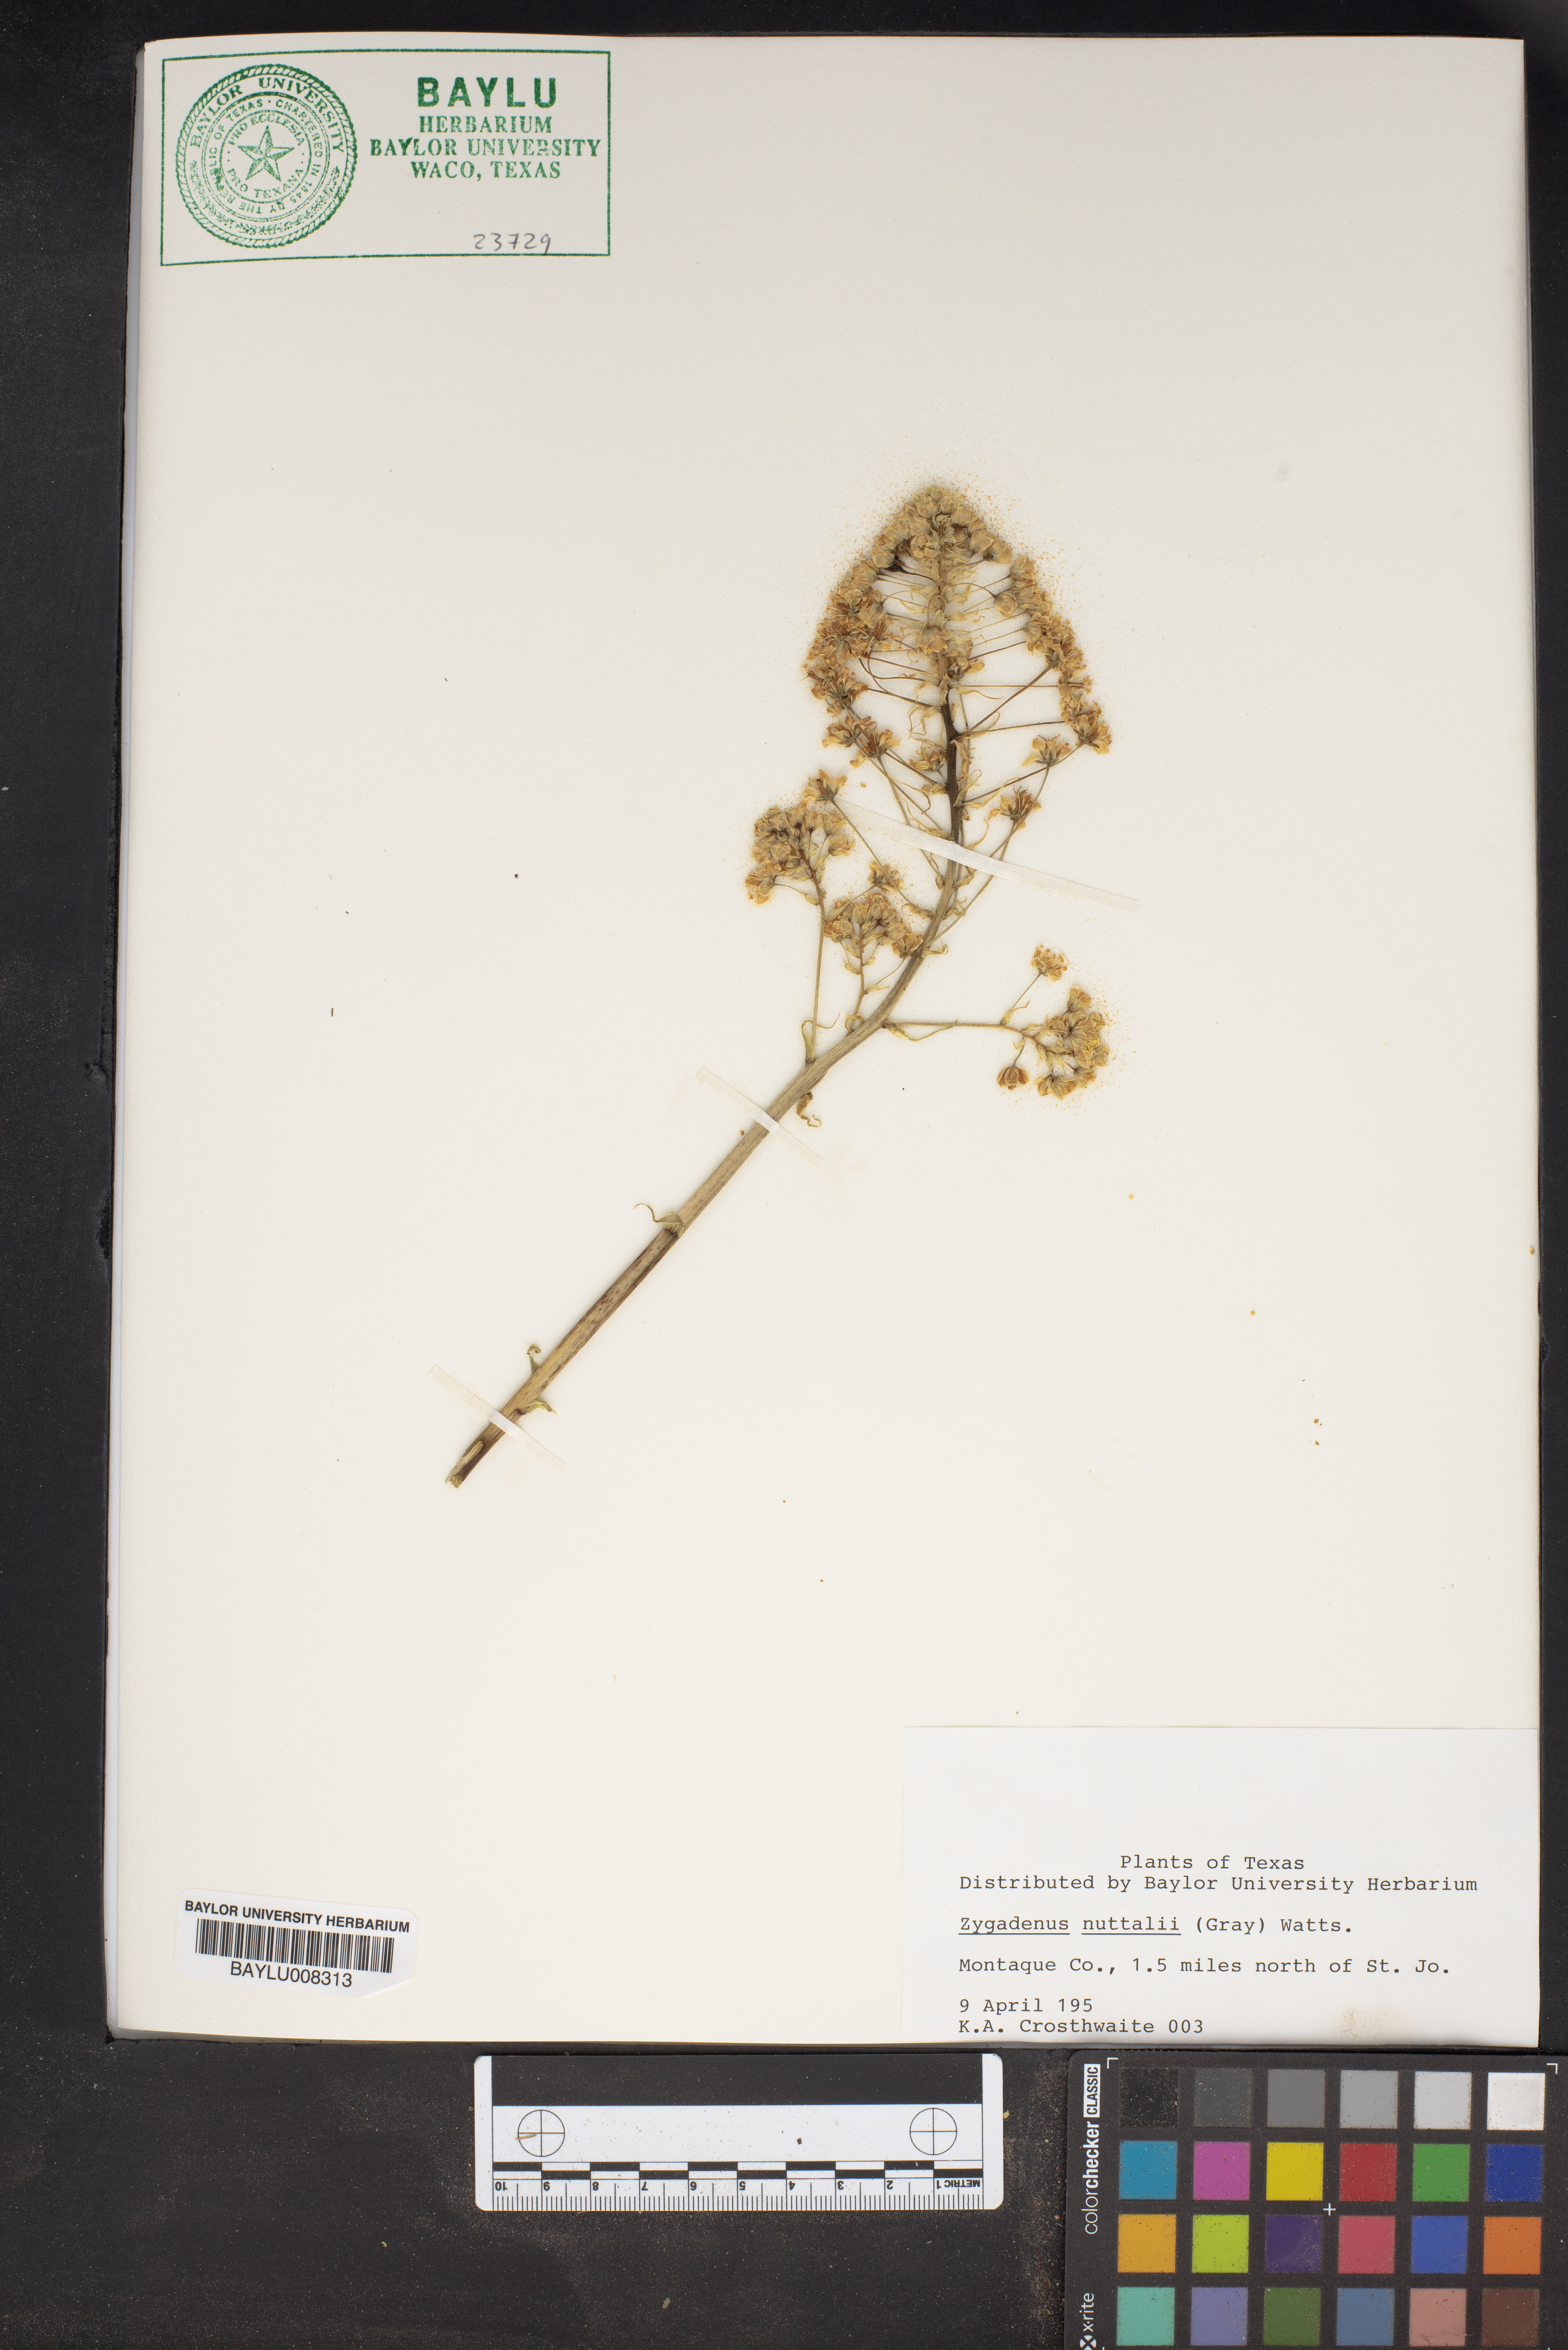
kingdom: Plantae
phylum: Tracheophyta
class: Liliopsida
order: Liliales
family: Melanthiaceae
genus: Toxicoscordion
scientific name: Toxicoscordion nuttallii
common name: Poison sego
